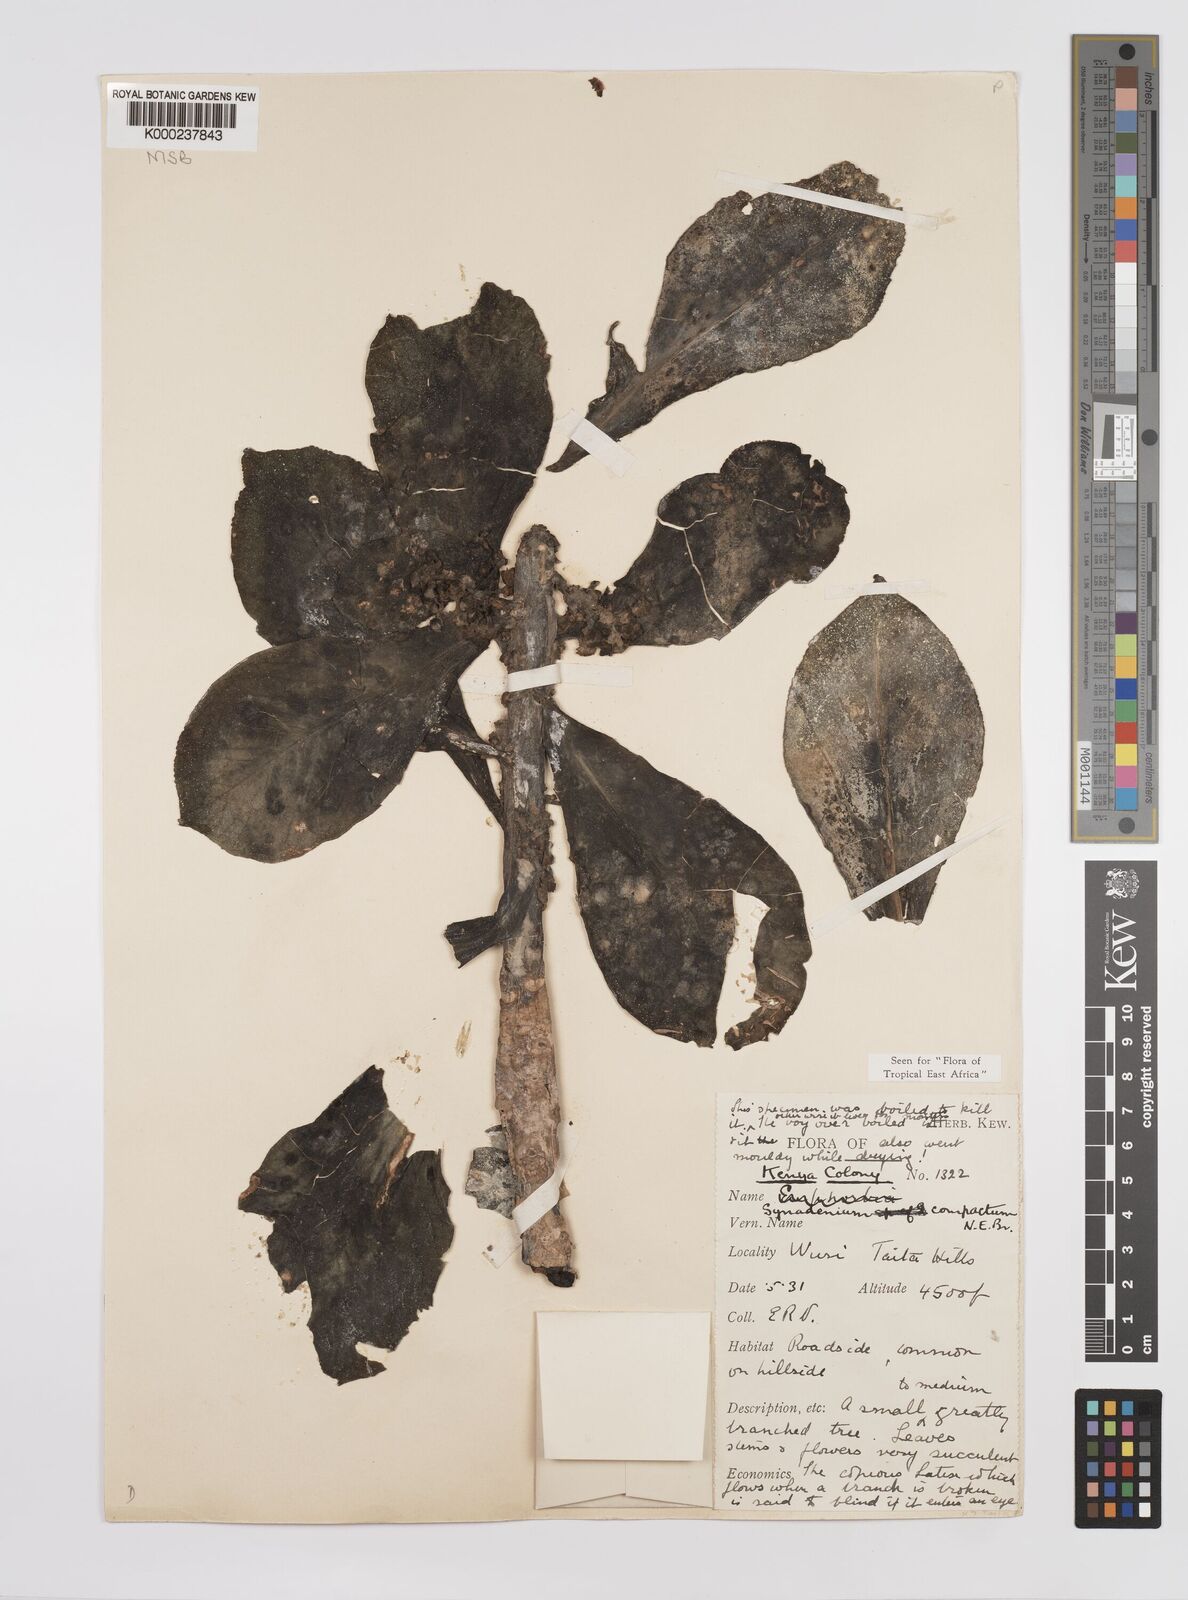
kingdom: Plantae
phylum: Tracheophyta
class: Magnoliopsida
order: Malpighiales
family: Euphorbiaceae
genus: Euphorbia
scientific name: Euphorbia bicompacta
